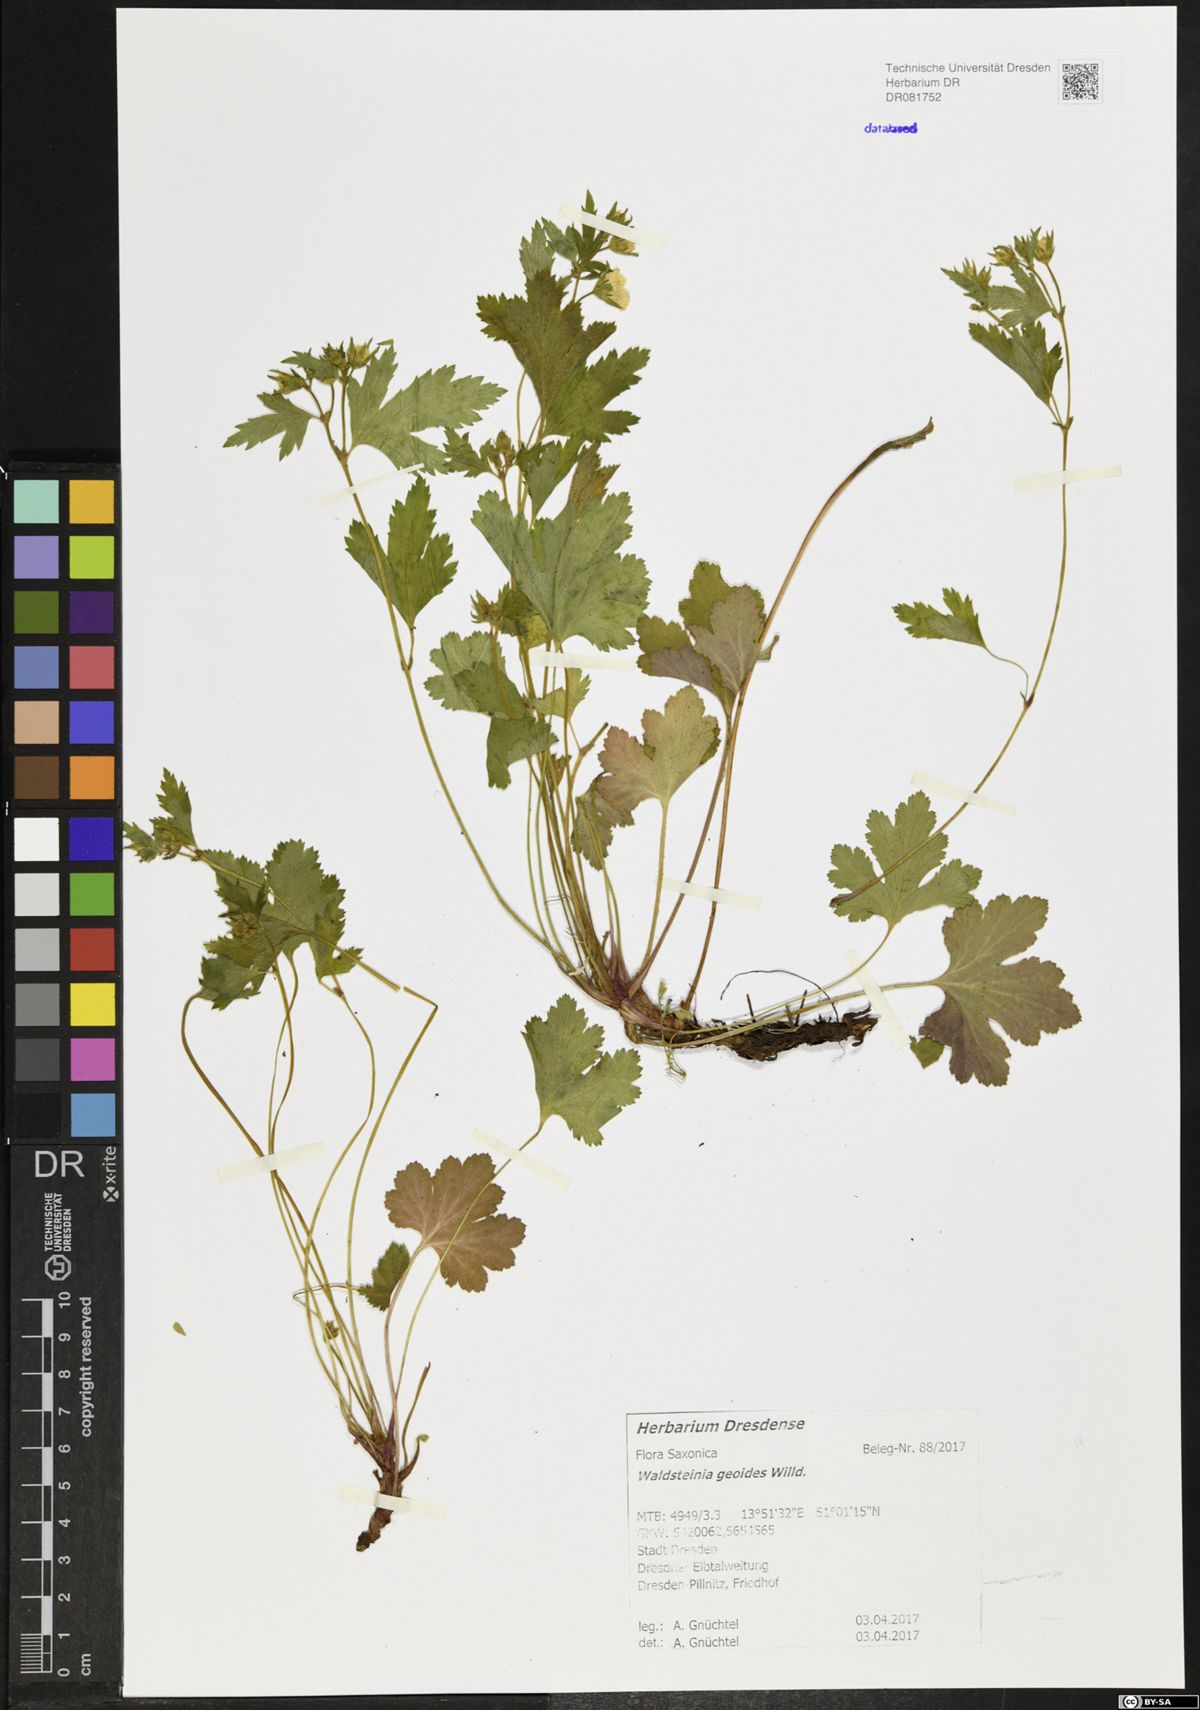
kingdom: Plantae
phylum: Tracheophyta
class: Magnoliopsida
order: Rosales
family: Rosaceae
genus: Geum
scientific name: Geum waldsteinia
